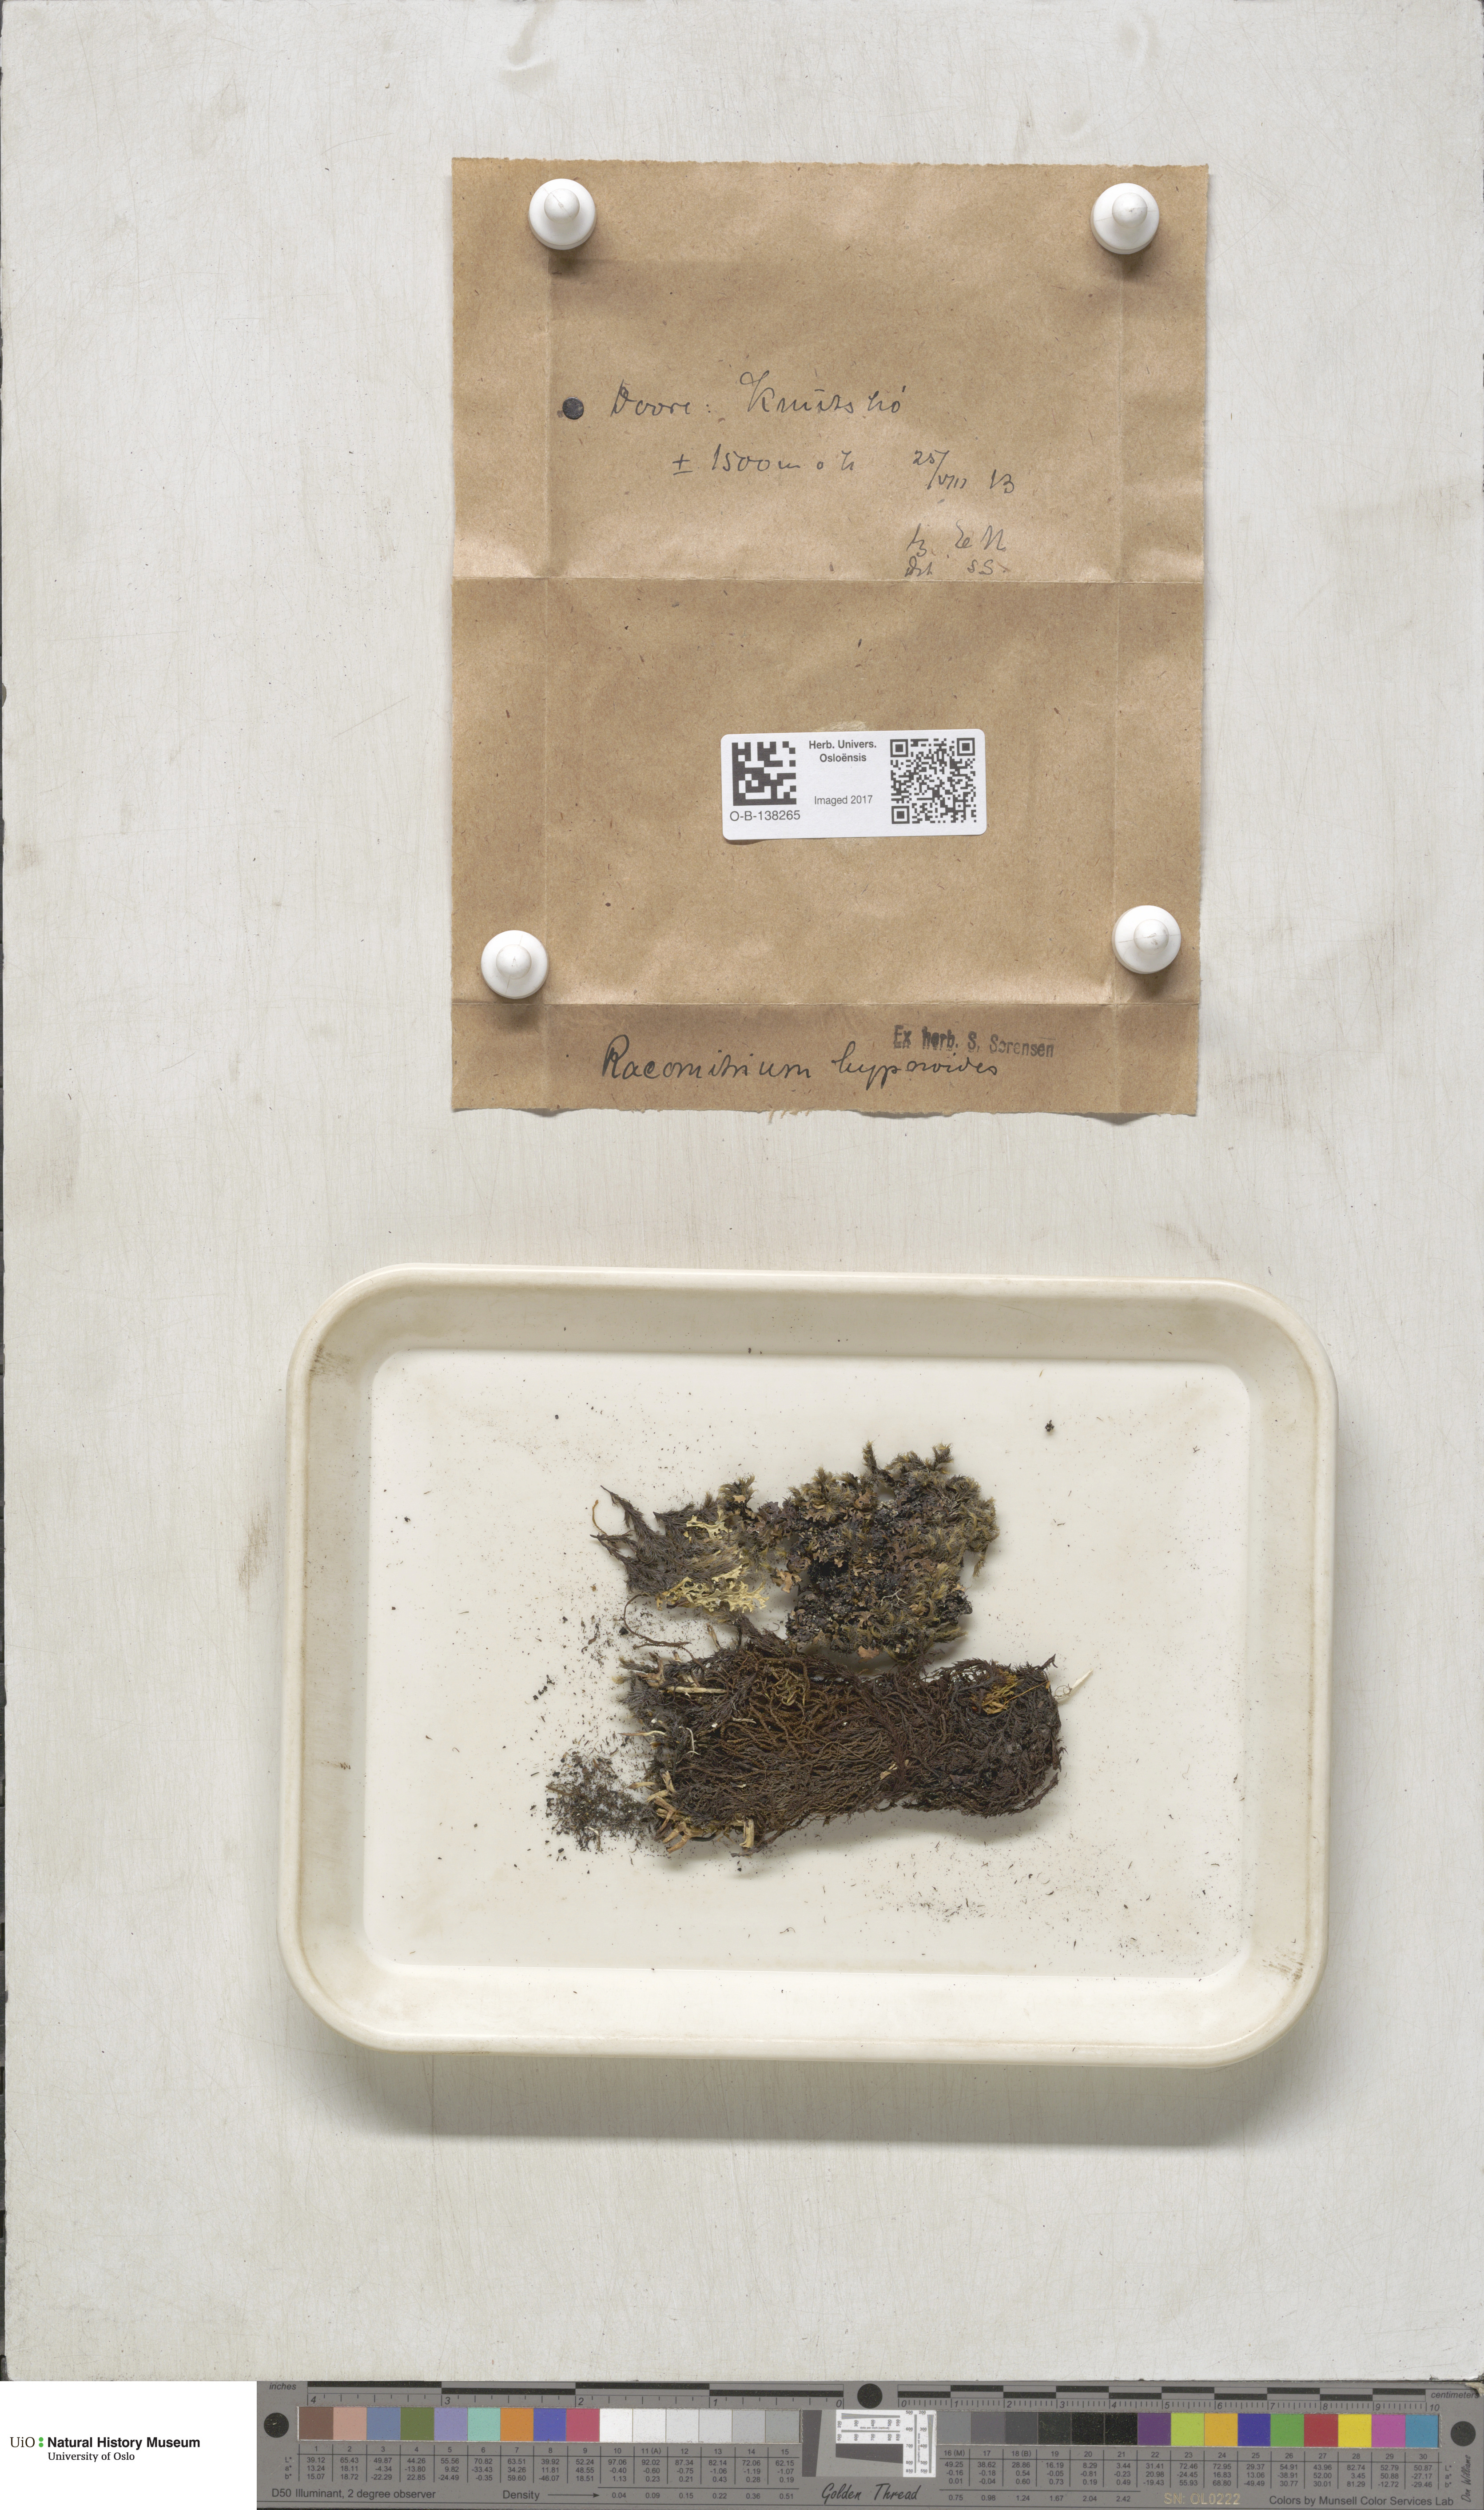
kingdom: Plantae
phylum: Bryophyta
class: Bryopsida
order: Grimmiales
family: Grimmiaceae
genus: Racomitrium
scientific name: Racomitrium lanuginosum
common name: Hoary rock moss
